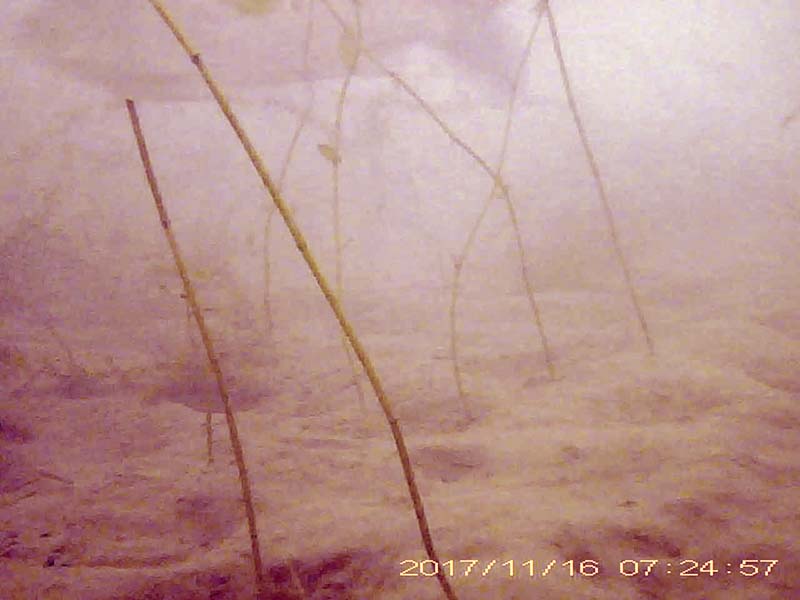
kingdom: Animalia
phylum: Chordata
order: Cypriniformes
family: Cyprinidae
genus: Carassius
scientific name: Carassius
